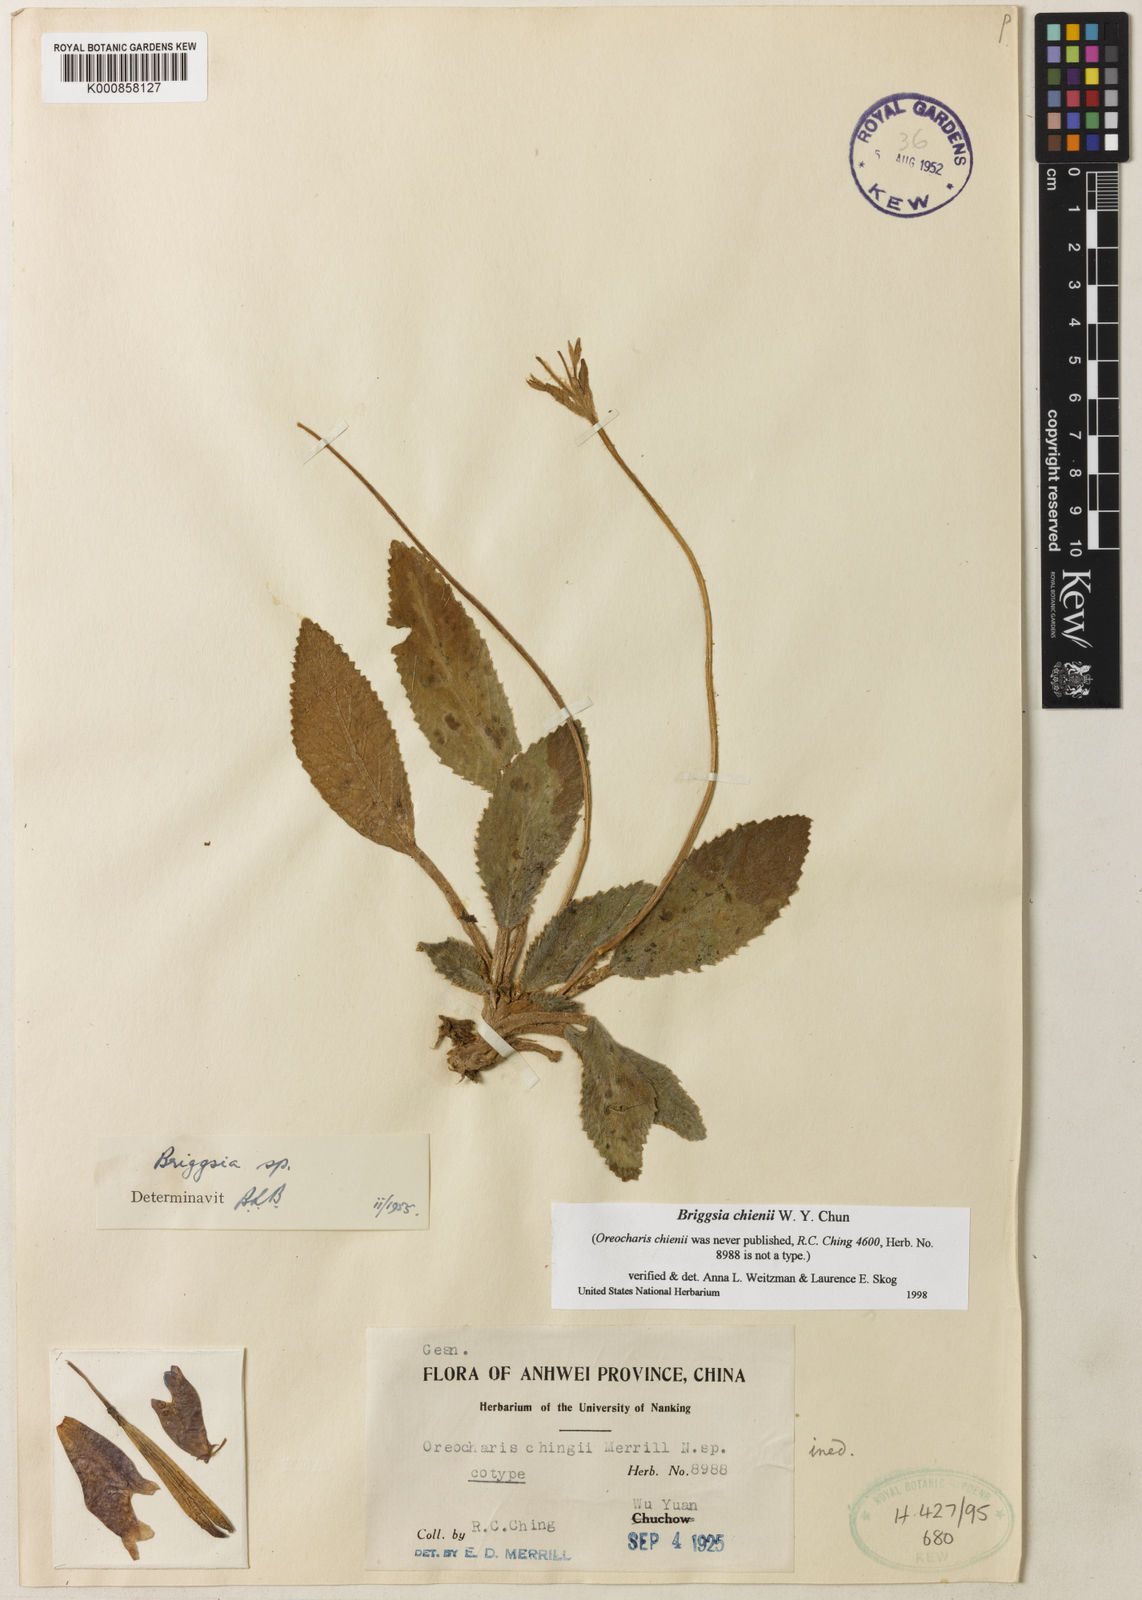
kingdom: Plantae
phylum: Tracheophyta
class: Magnoliopsida
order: Lamiales
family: Gesneriaceae
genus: Oreocharis
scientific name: Oreocharis
